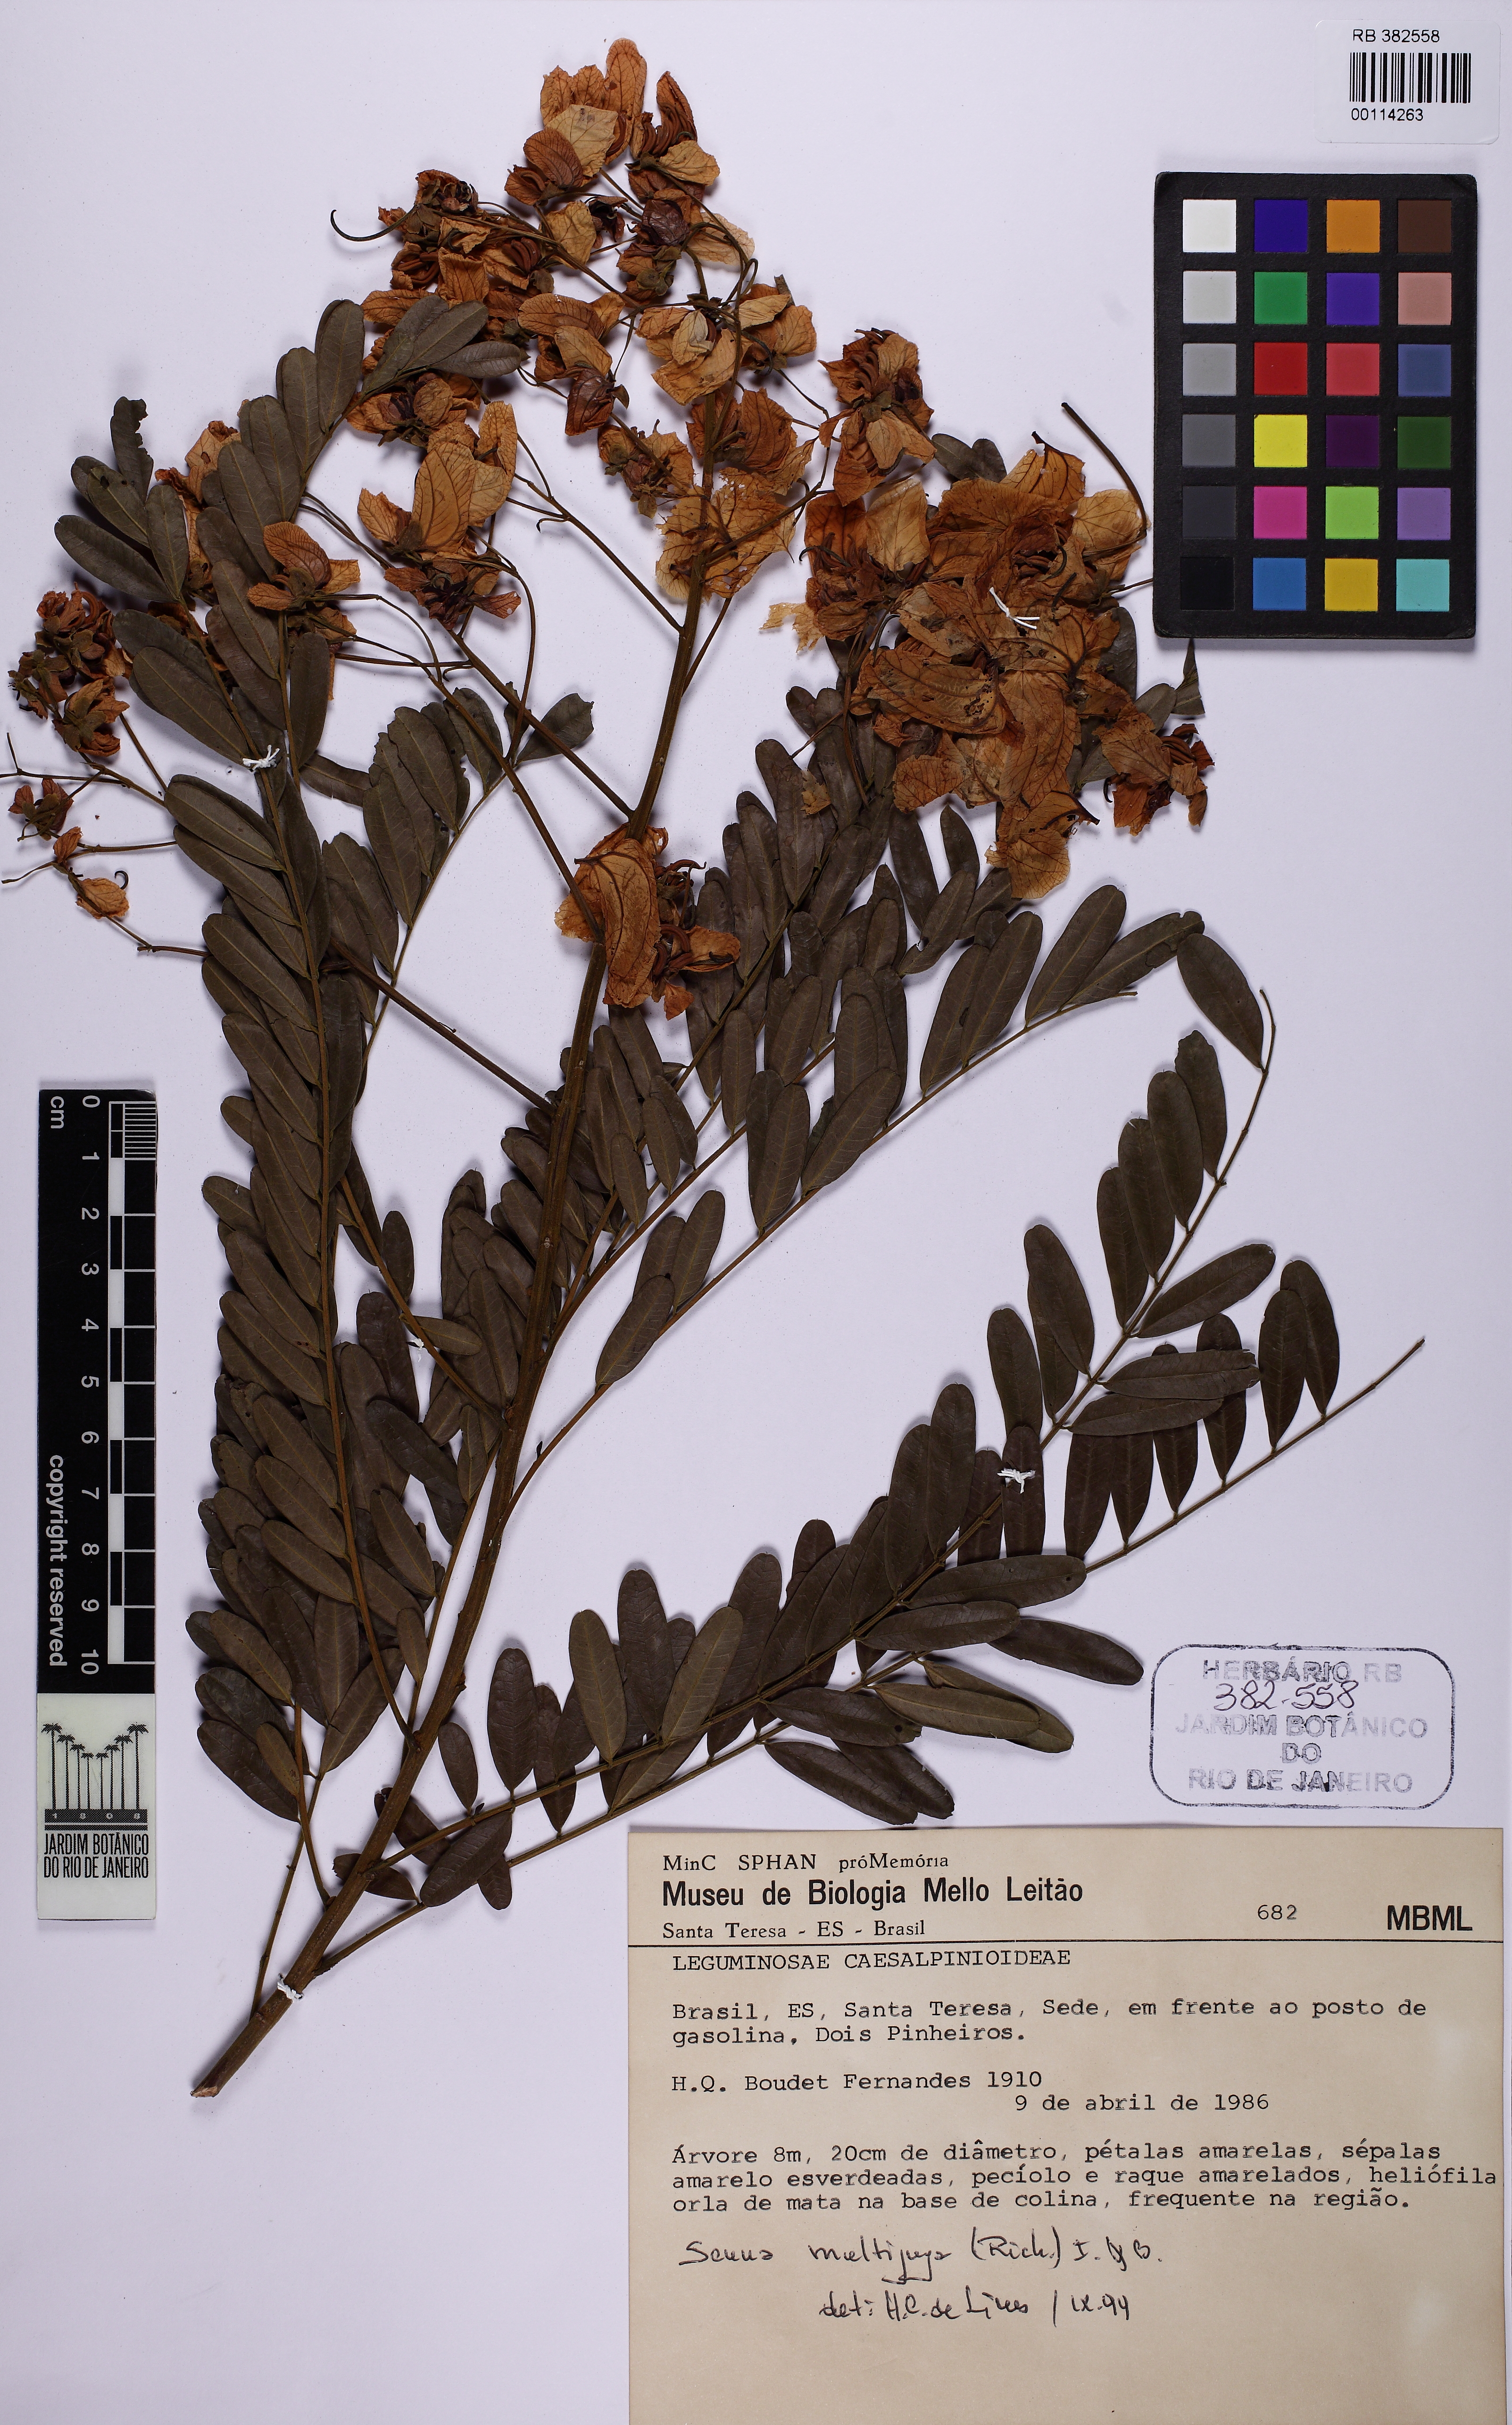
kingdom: Plantae
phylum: Tracheophyta
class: Magnoliopsida
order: Fabales
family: Fabaceae
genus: Senna
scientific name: Senna multijuga
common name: False sicklepod
